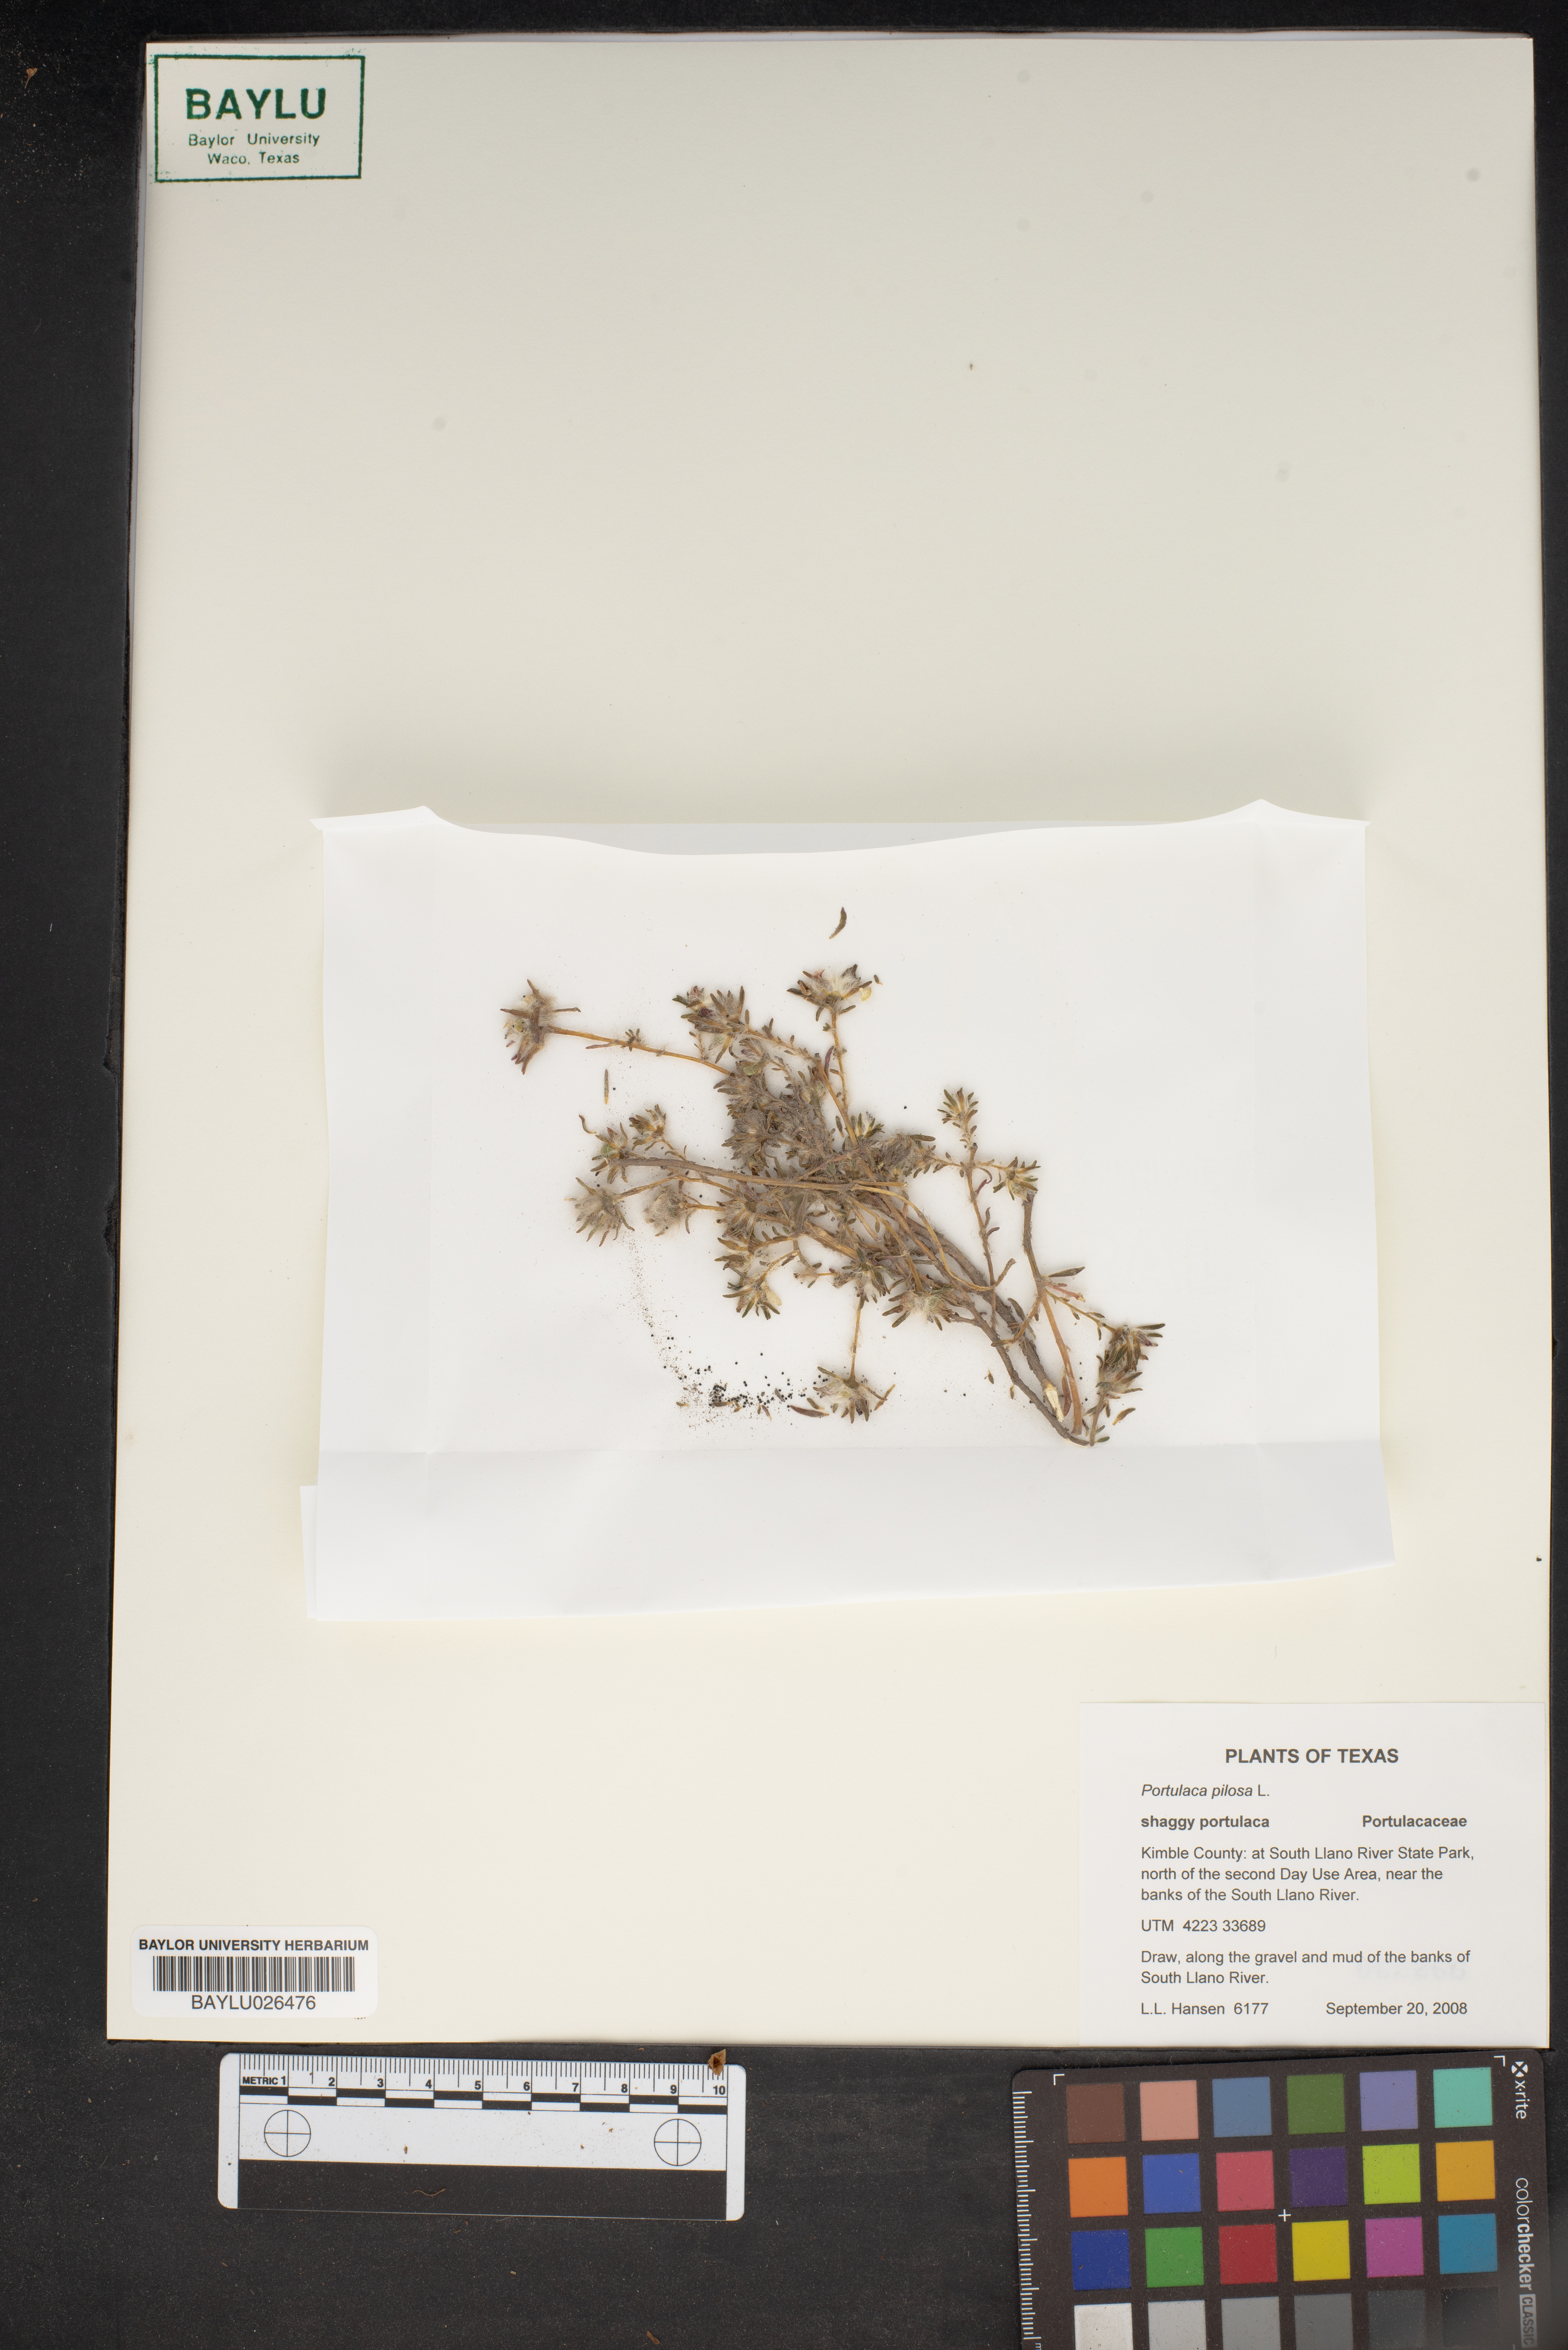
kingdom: Plantae
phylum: Tracheophyta
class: Magnoliopsida
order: Caryophyllales
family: Portulacaceae
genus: Portulaca
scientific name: Portulaca pilosa
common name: Kiss me quick
